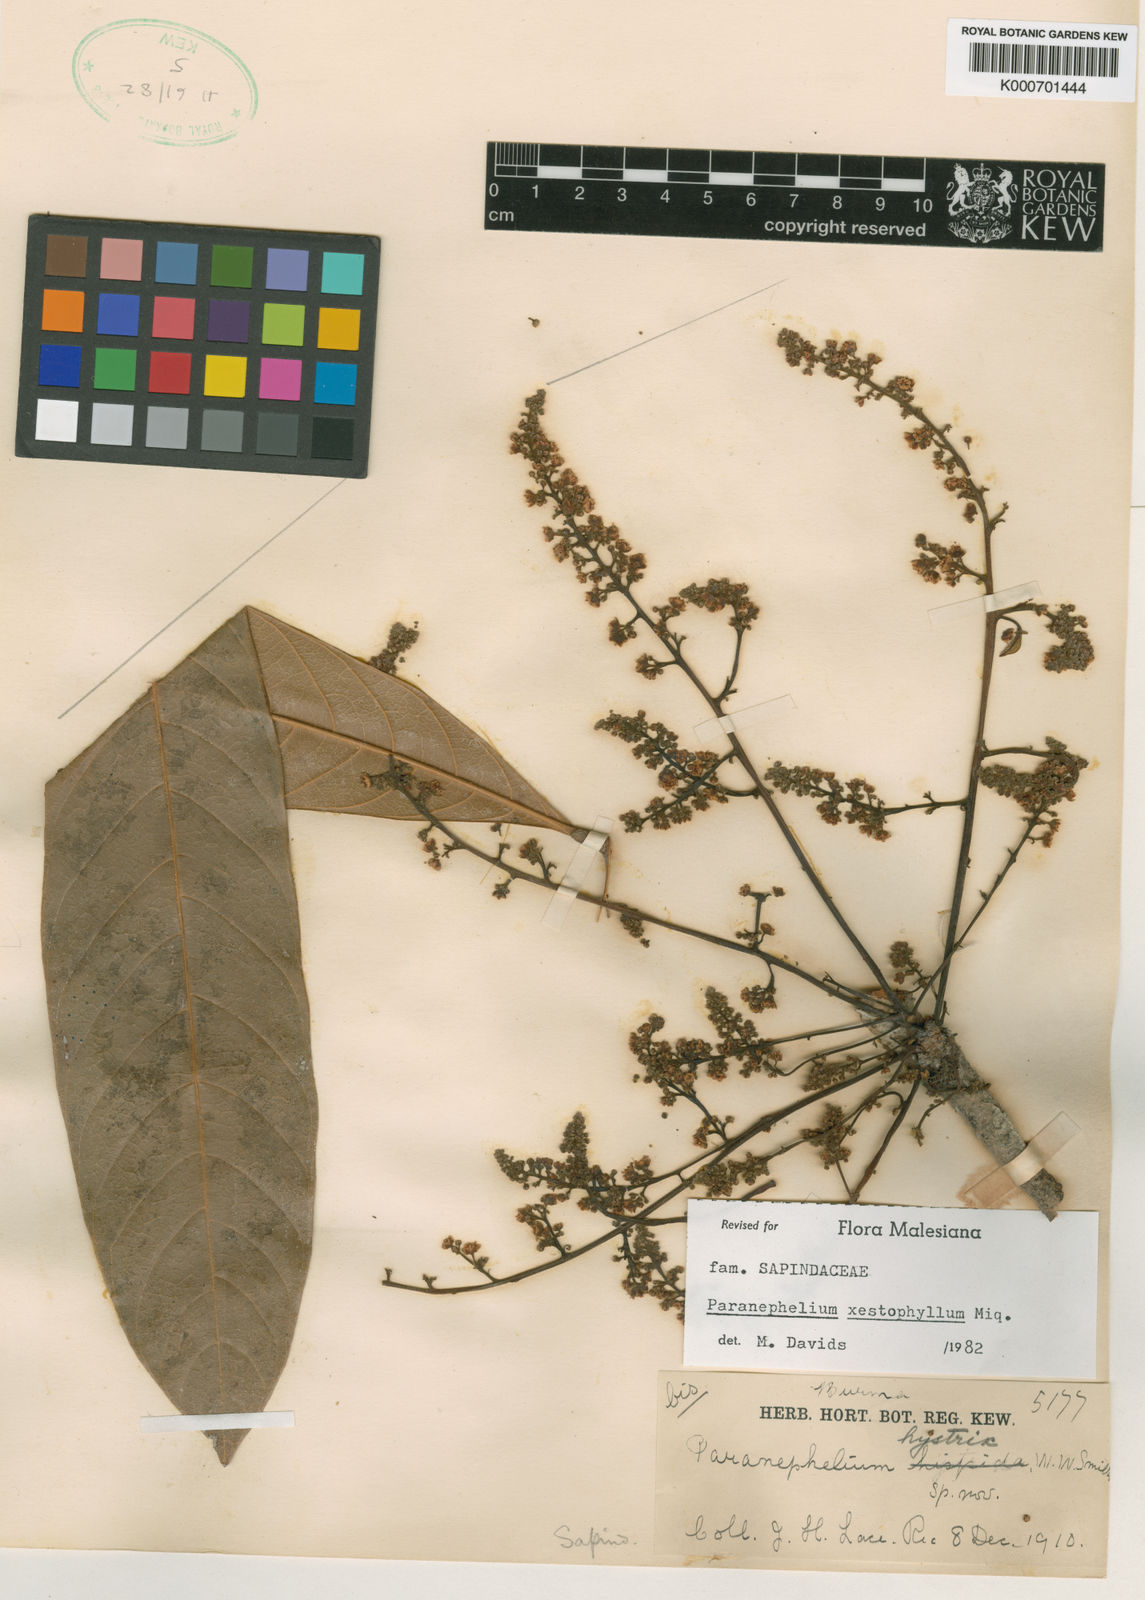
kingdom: Plantae
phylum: Tracheophyta
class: Magnoliopsida
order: Sapindales
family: Sapindaceae
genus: Paranephelium
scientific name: Paranephelium xestophyllum
